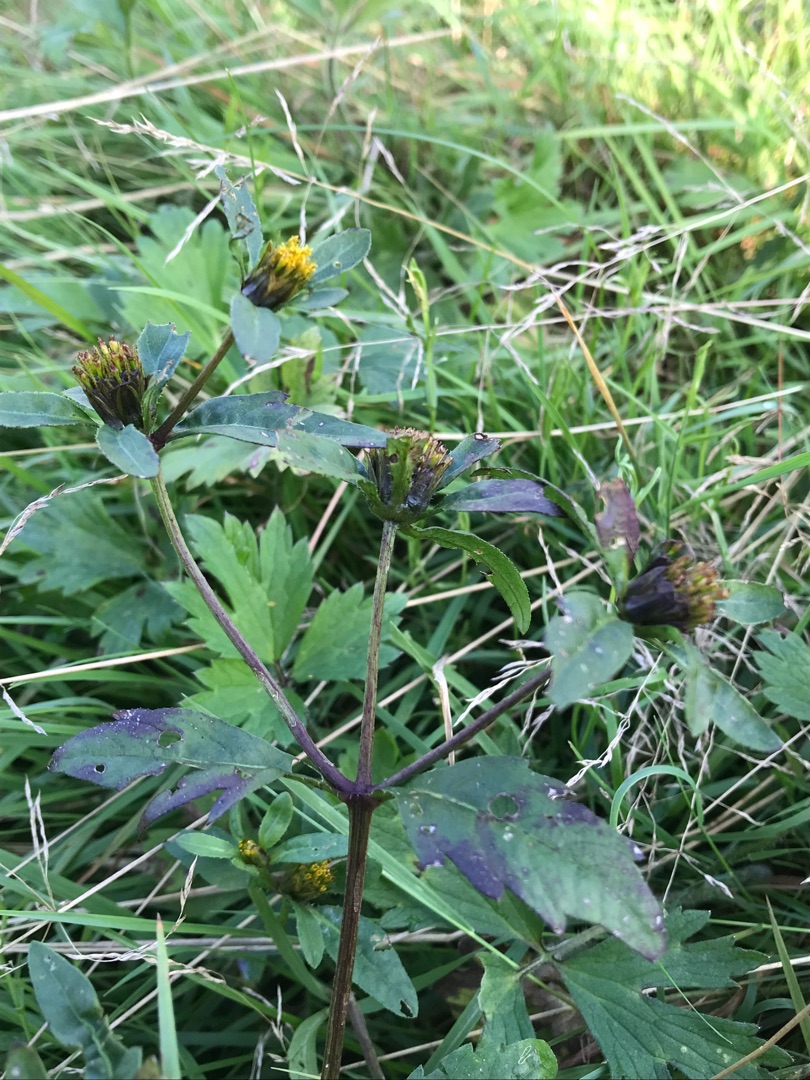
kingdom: Plantae
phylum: Tracheophyta
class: Magnoliopsida
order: Asterales
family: Asteraceae
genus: Bidens
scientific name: Bidens tripartita
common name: Fliget brøndsel
